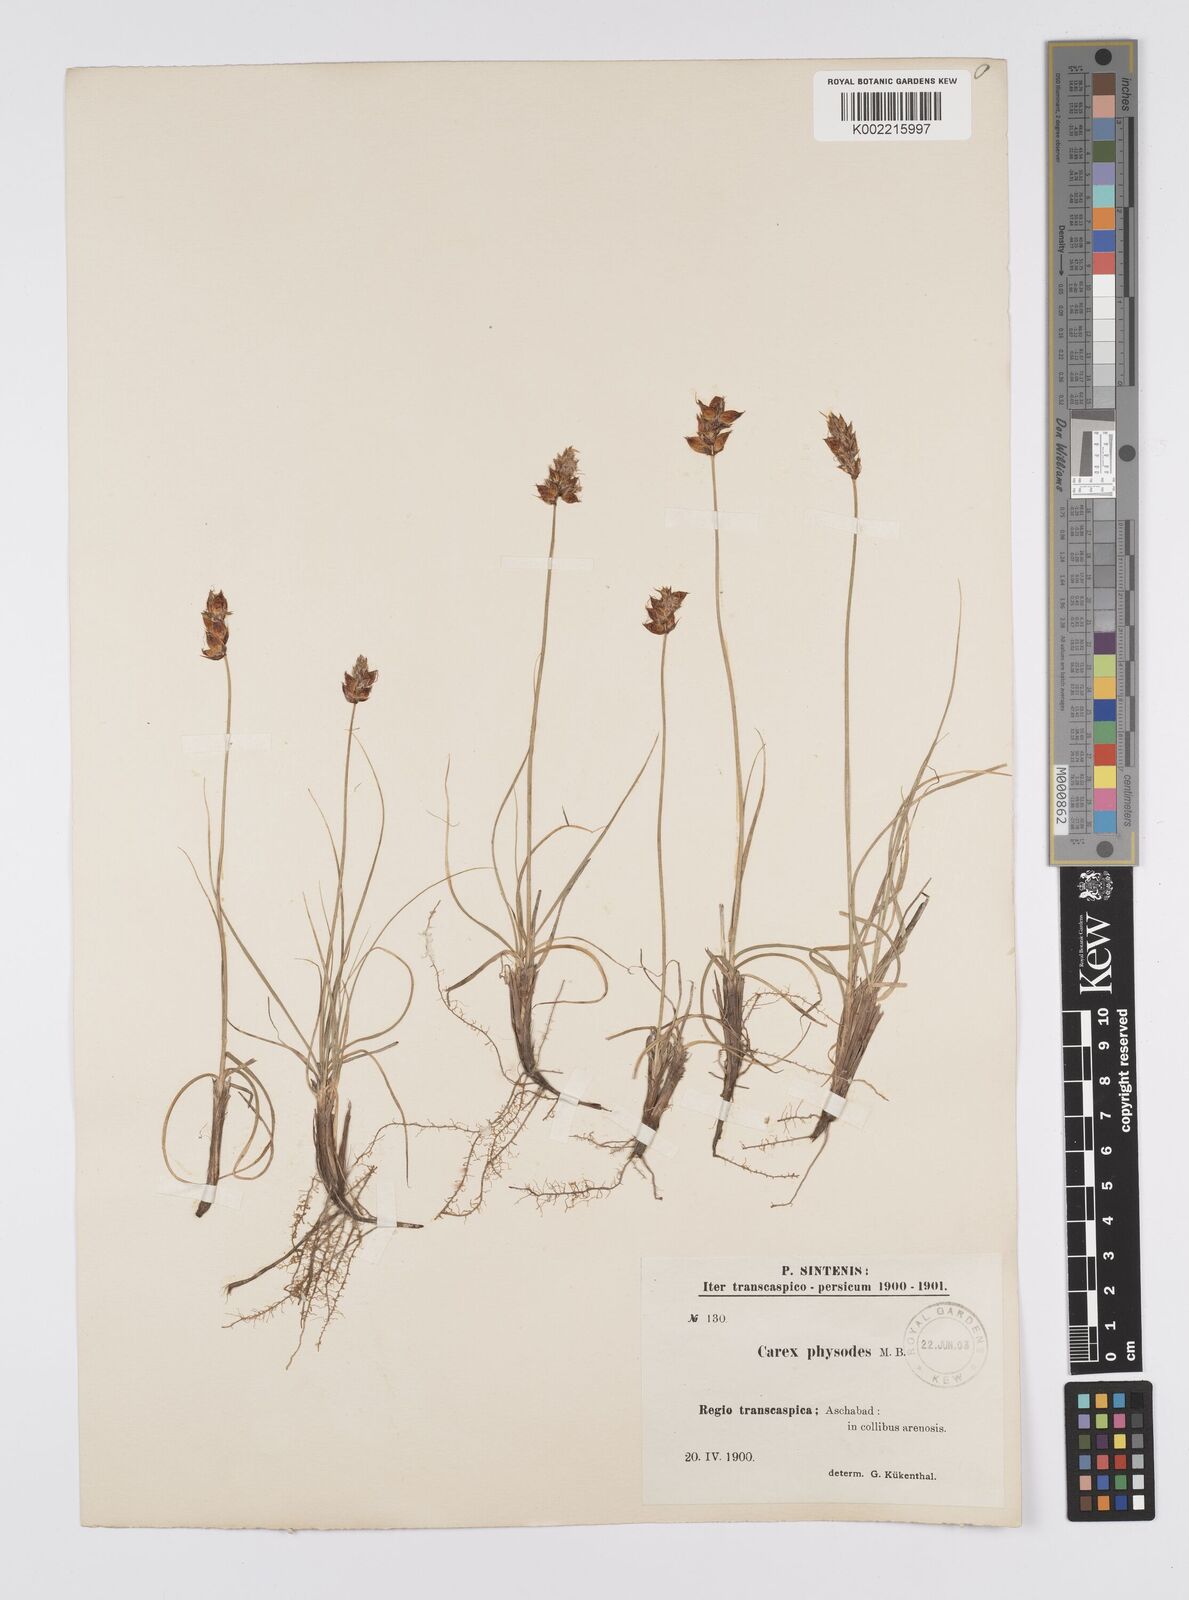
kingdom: Plantae
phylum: Tracheophyta
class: Liliopsida
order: Poales
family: Cyperaceae
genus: Carex
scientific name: Carex physodes
